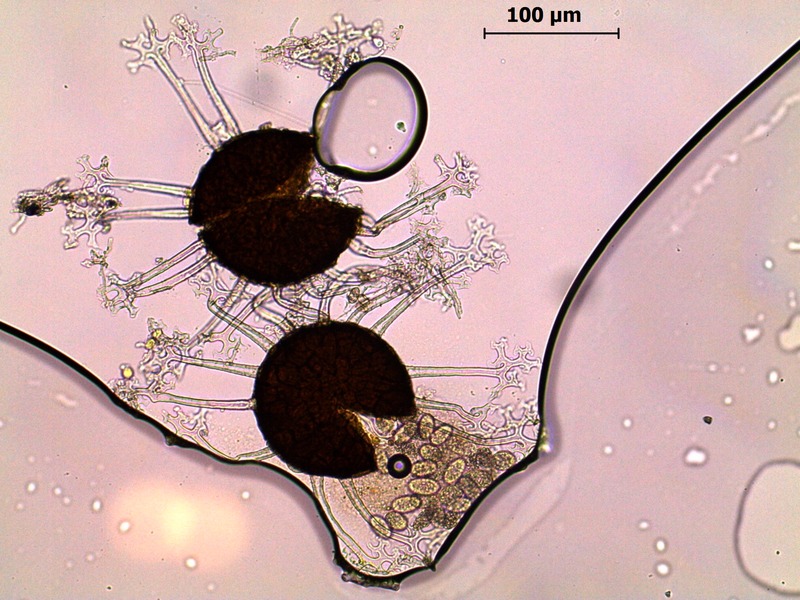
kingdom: Fungi
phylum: Ascomycota
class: Leotiomycetes
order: Helotiales
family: Erysiphaceae
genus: Erysiphe
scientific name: Erysiphe alphitoides
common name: Oak mildew
